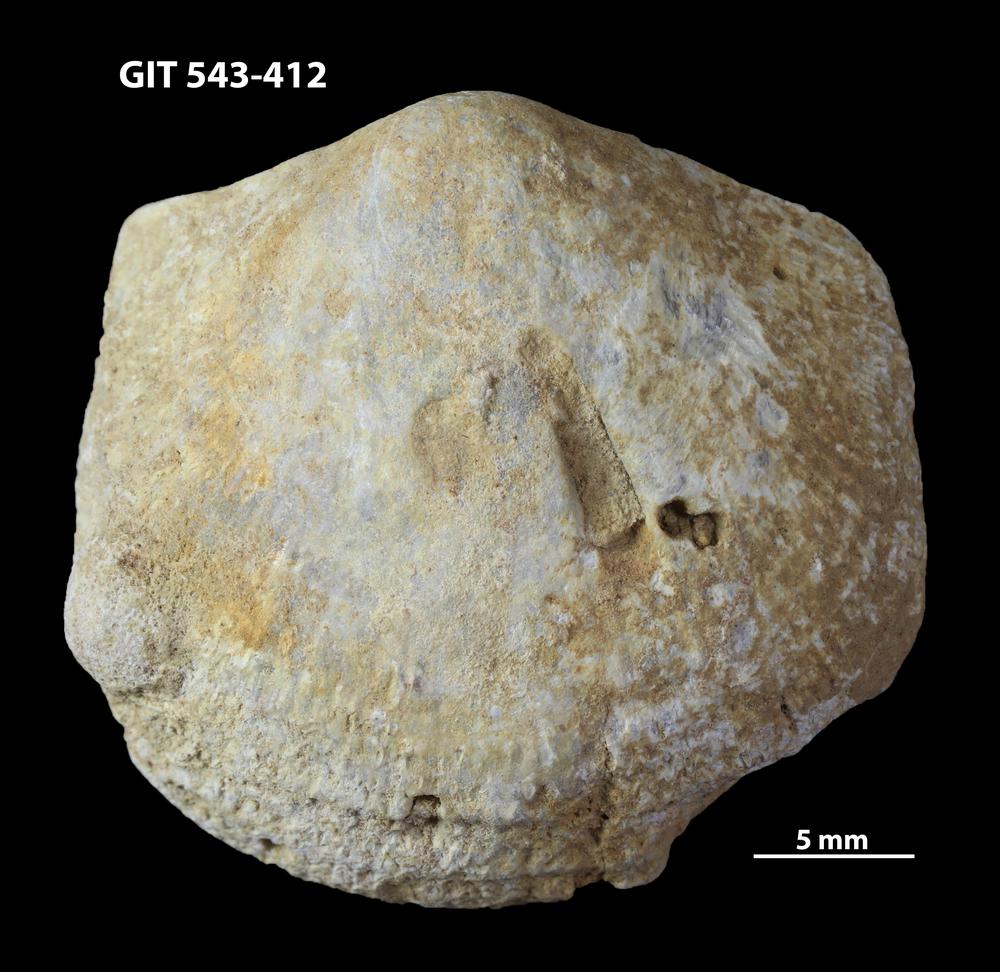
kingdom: Animalia
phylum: Brachiopoda
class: Rhynchonellata
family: Clitambonitidae
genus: Clitambonites
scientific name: Clitambonites
